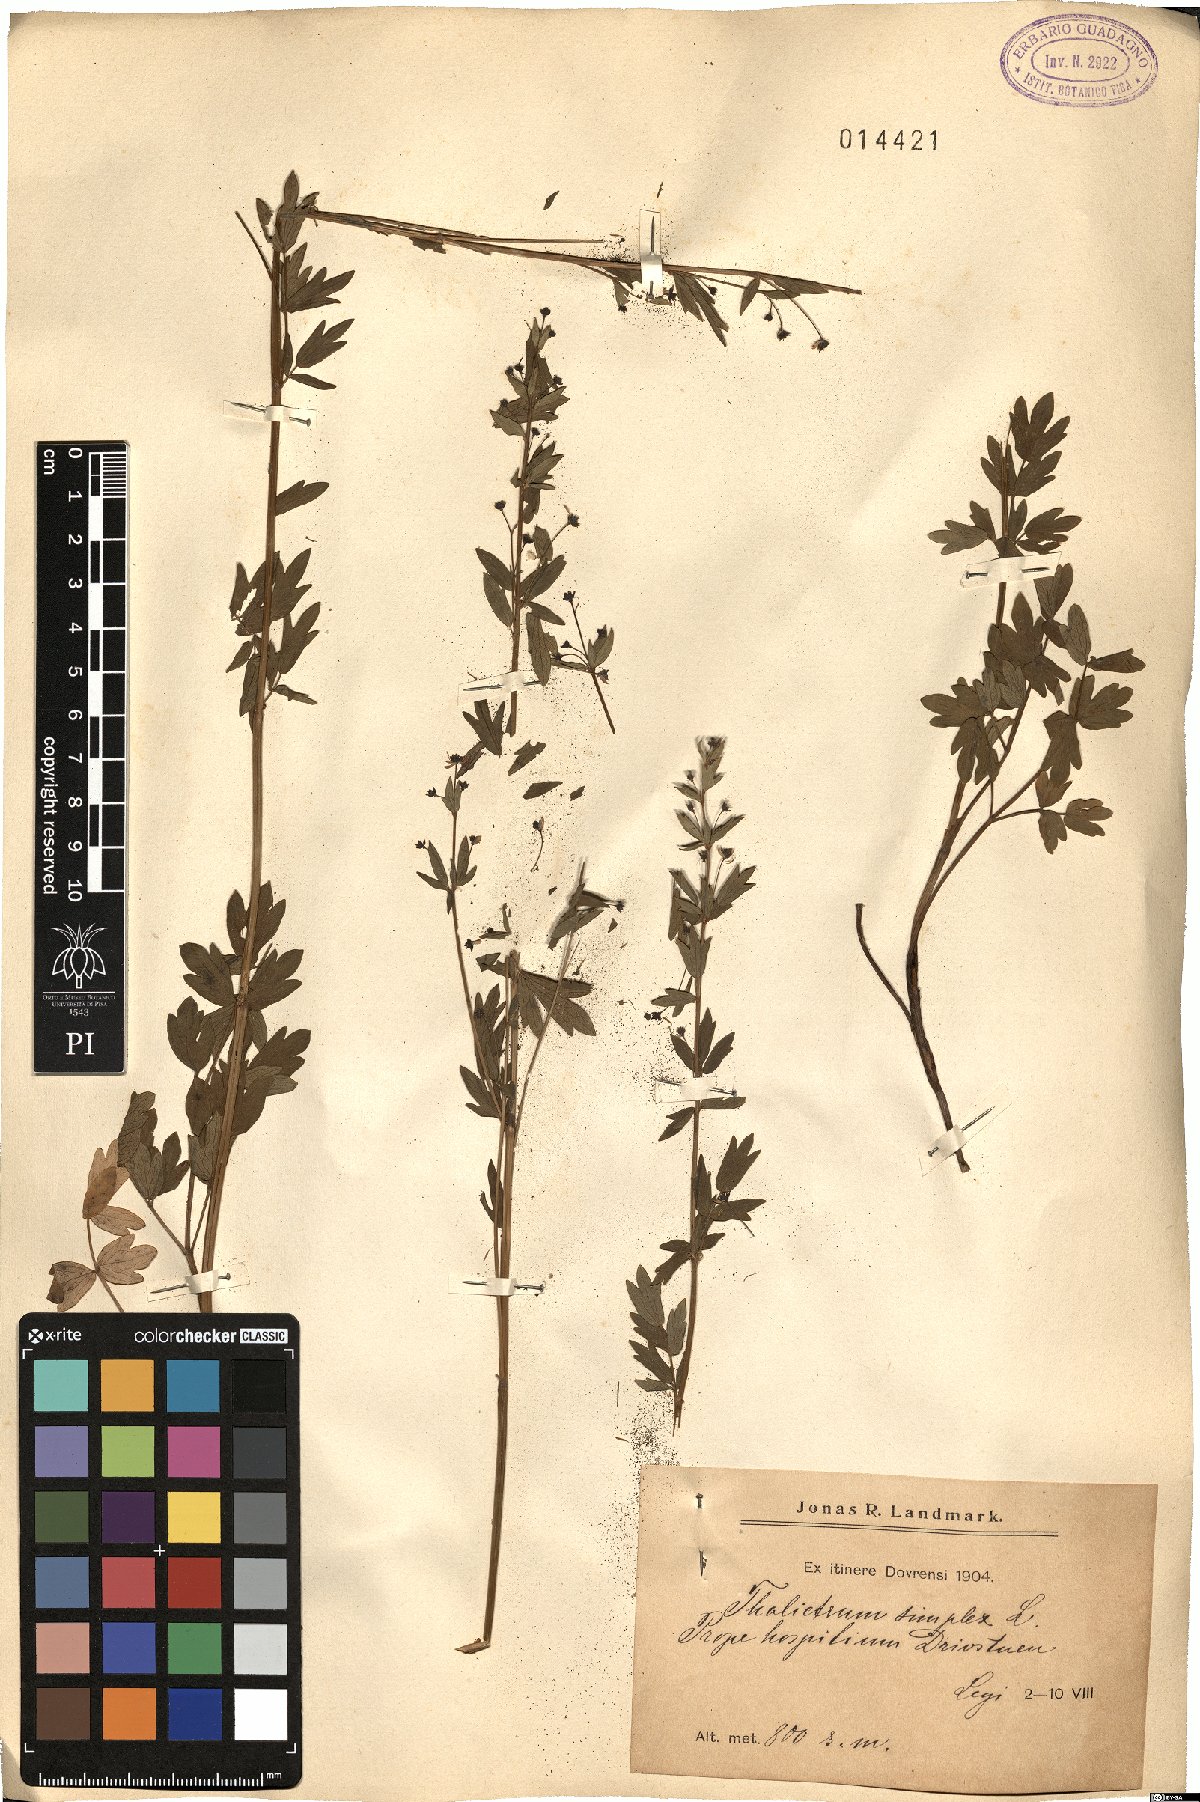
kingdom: Plantae
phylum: Tracheophyta
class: Magnoliopsida
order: Ranunculales
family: Ranunculaceae
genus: Thalictrum
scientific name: Thalictrum simplex
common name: Small meadow-rue
